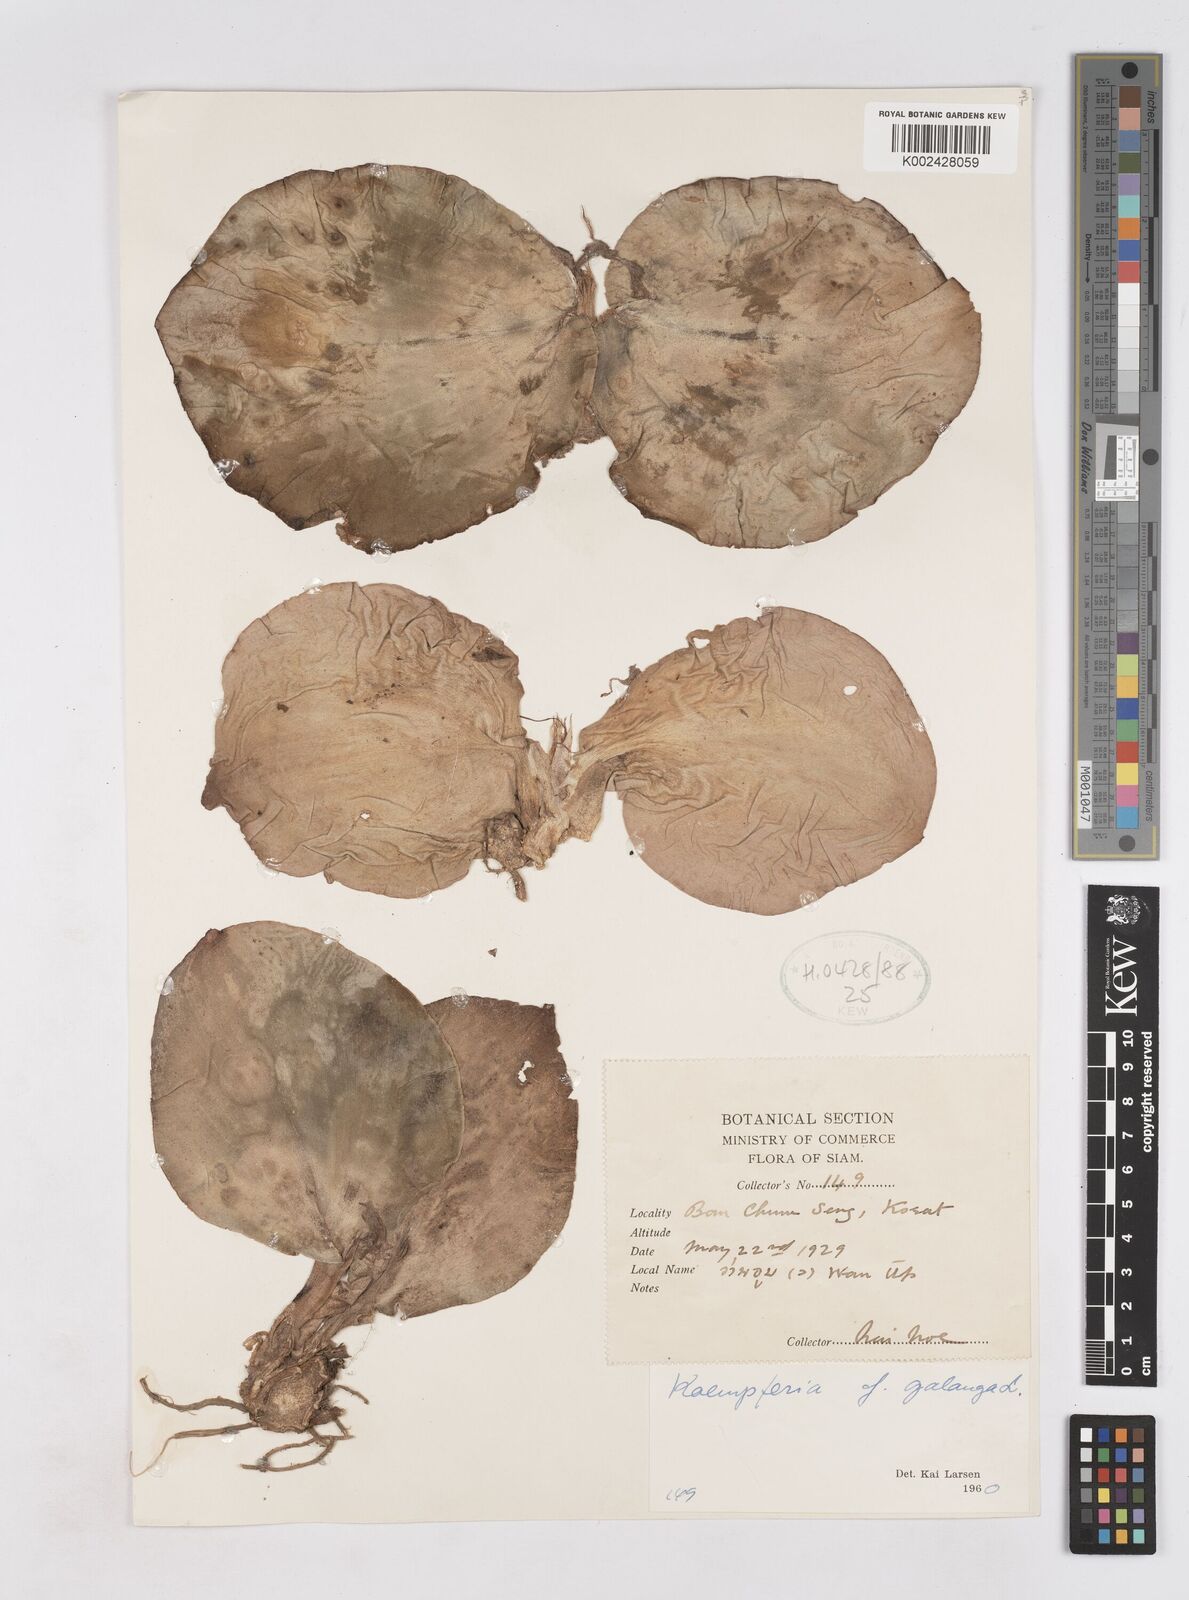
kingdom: Plantae
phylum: Tracheophyta
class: Liliopsida
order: Zingiberales
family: Zingiberaceae
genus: Kaempferia
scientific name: Kaempferia galanga
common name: Aromatic ginger
